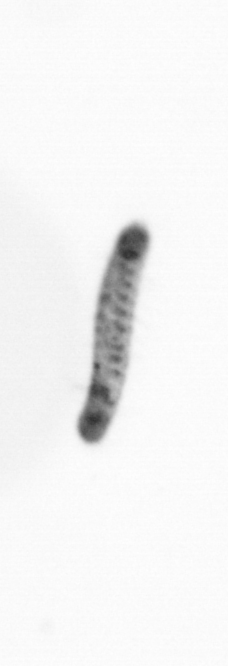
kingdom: Animalia
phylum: Annelida
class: Polychaeta
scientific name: Polychaeta
